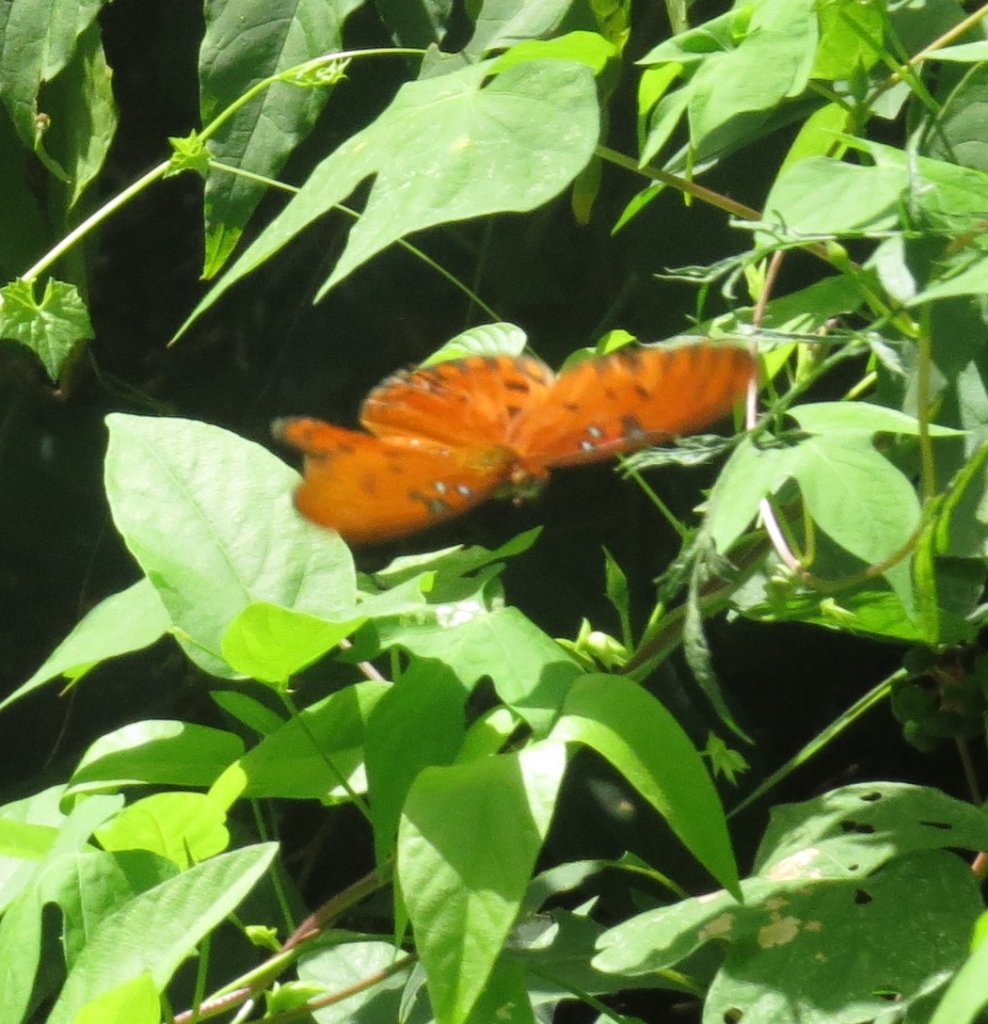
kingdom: Animalia
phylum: Arthropoda
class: Insecta
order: Lepidoptera
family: Nymphalidae
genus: Dione
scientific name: Dione vanillae
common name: Gulf Fritillary
